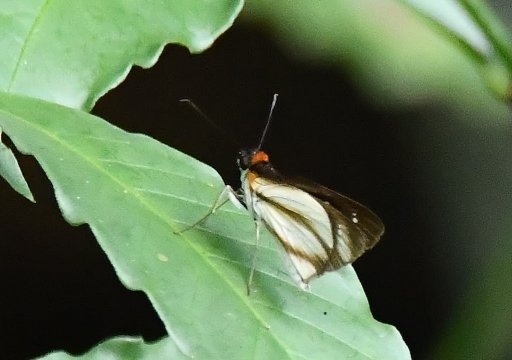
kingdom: Animalia
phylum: Arthropoda
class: Insecta
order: Lepidoptera
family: Hesperiidae
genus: Vettius
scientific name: Vettius marcus
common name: Marcus Skipper
